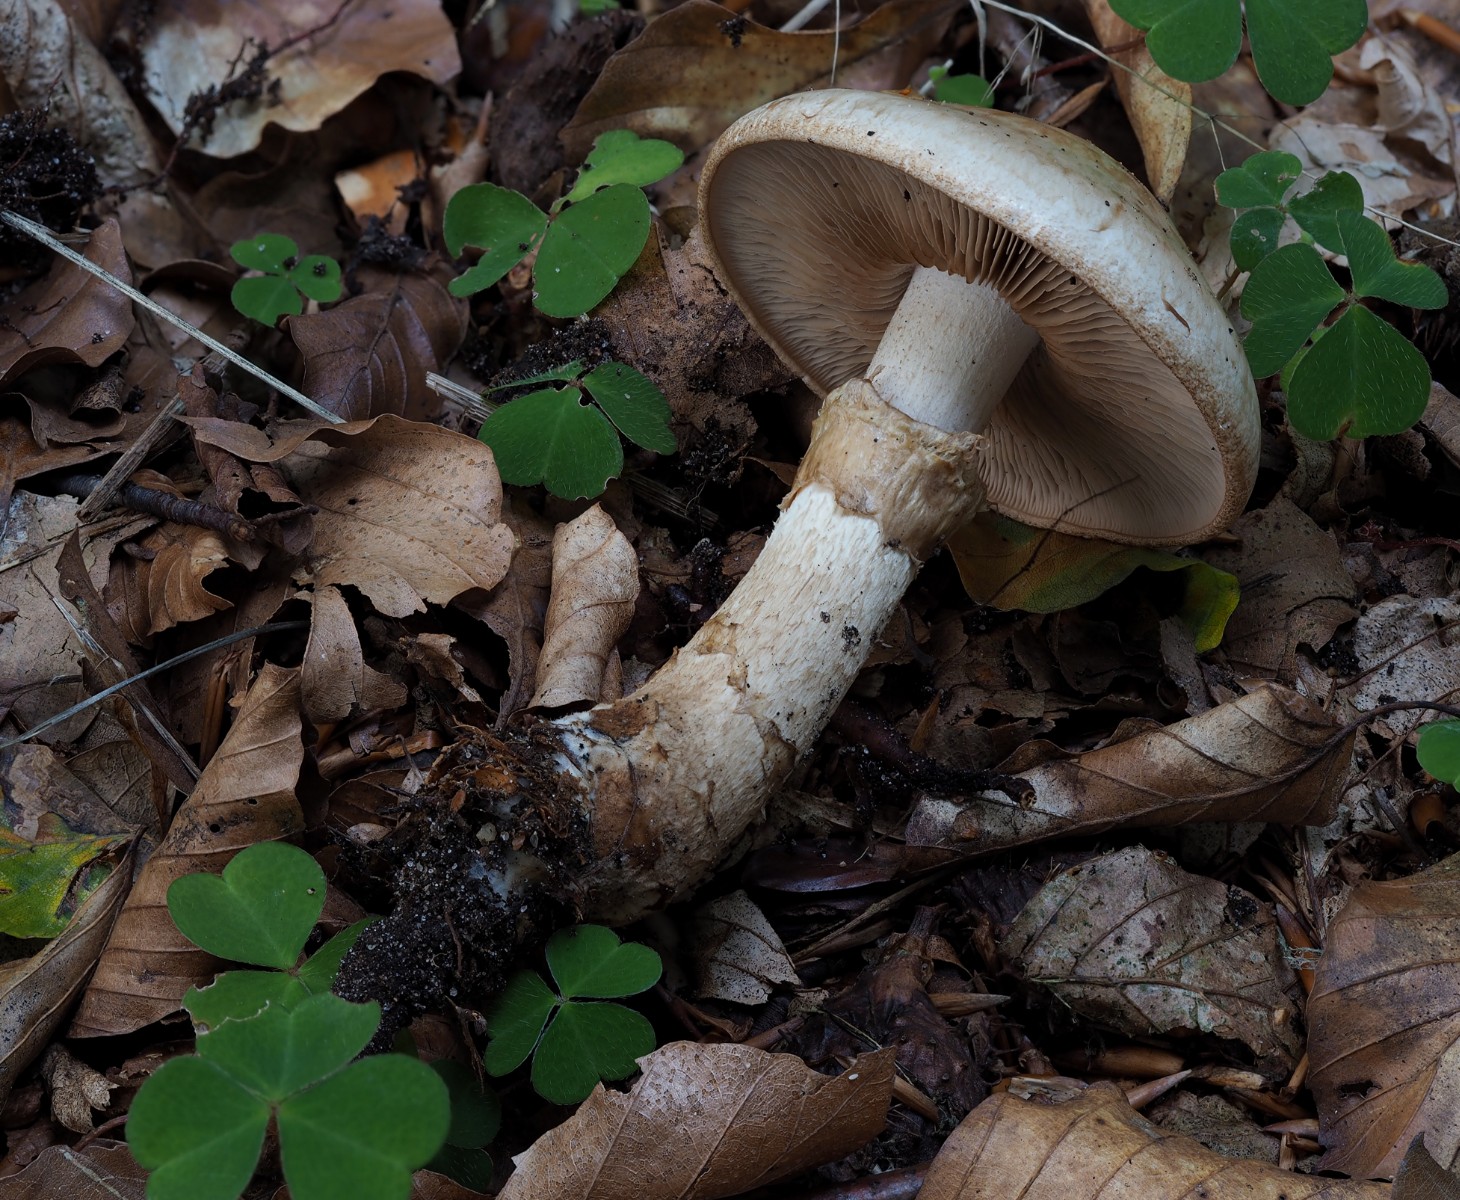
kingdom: Fungi
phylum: Basidiomycota
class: Agaricomycetes
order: Agaricales
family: Hymenogastraceae
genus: Hebeloma
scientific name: Hebeloma radicosum
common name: pælerods-tåreblad
